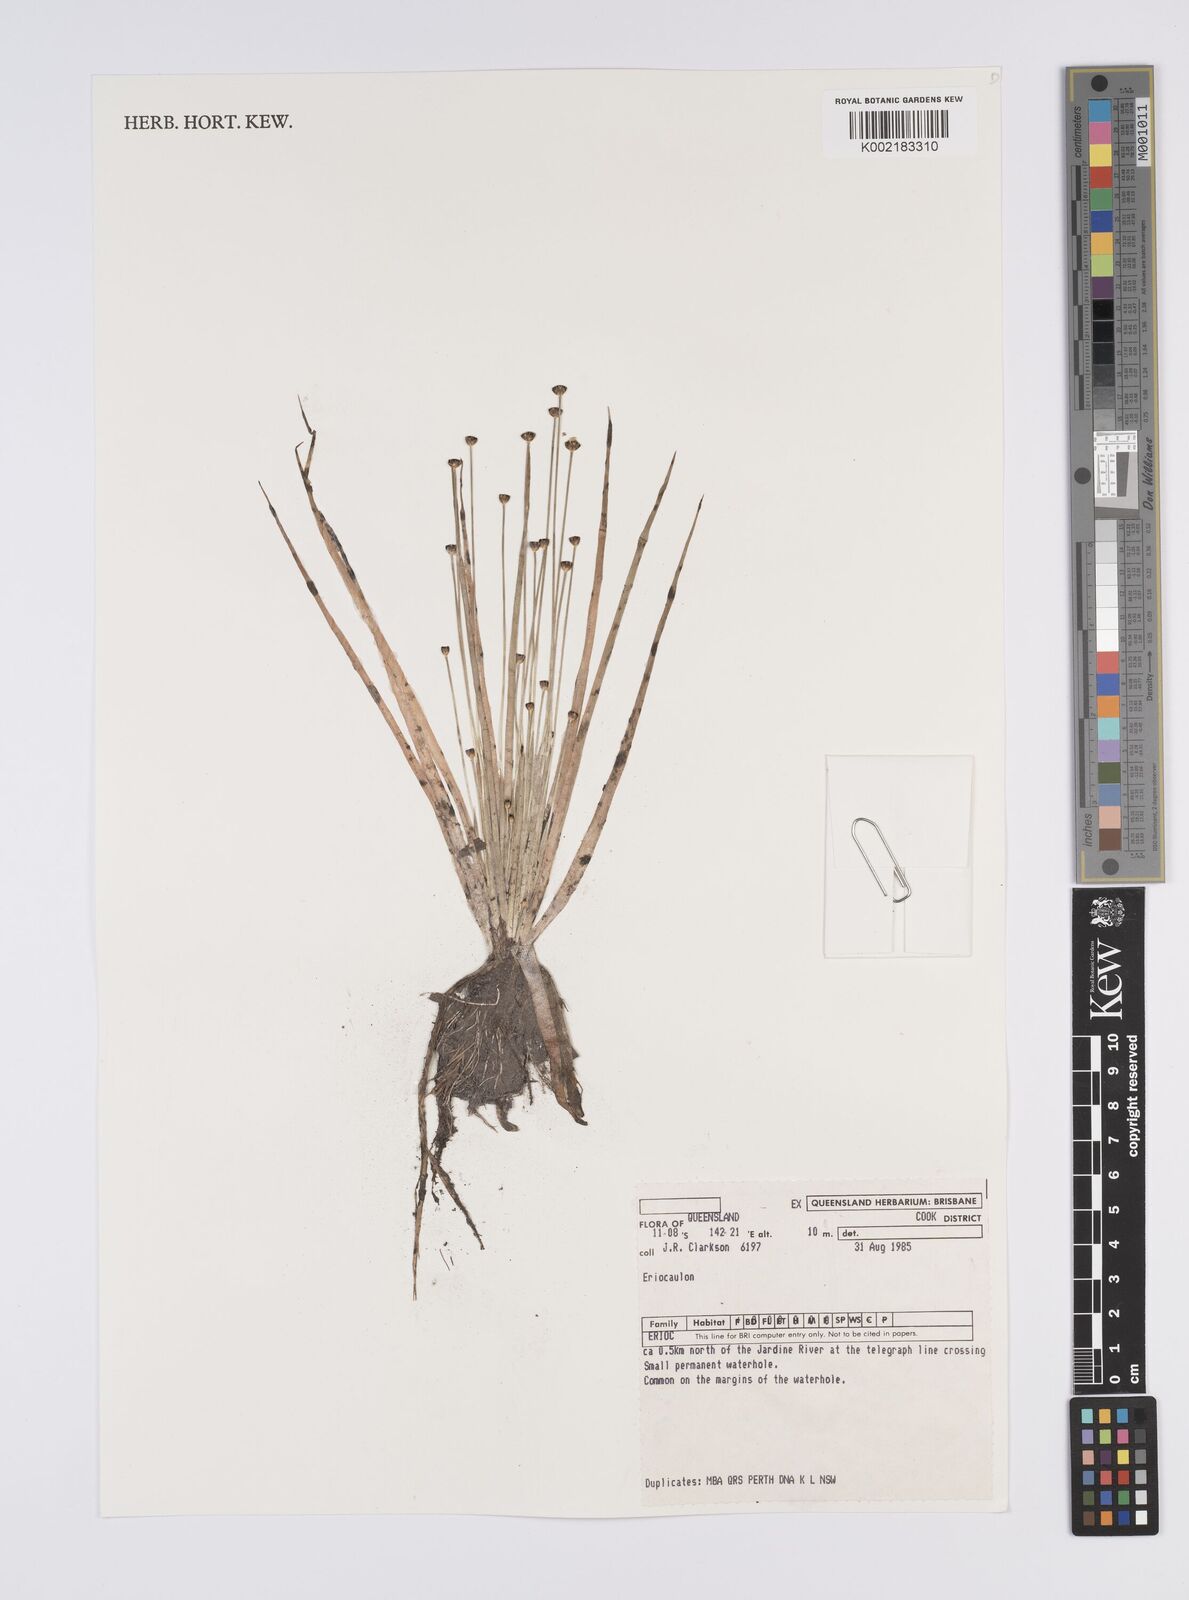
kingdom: Plantae
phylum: Tracheophyta
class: Liliopsida
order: Poales
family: Eriocaulaceae
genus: Eriocaulon
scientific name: Eriocaulon
